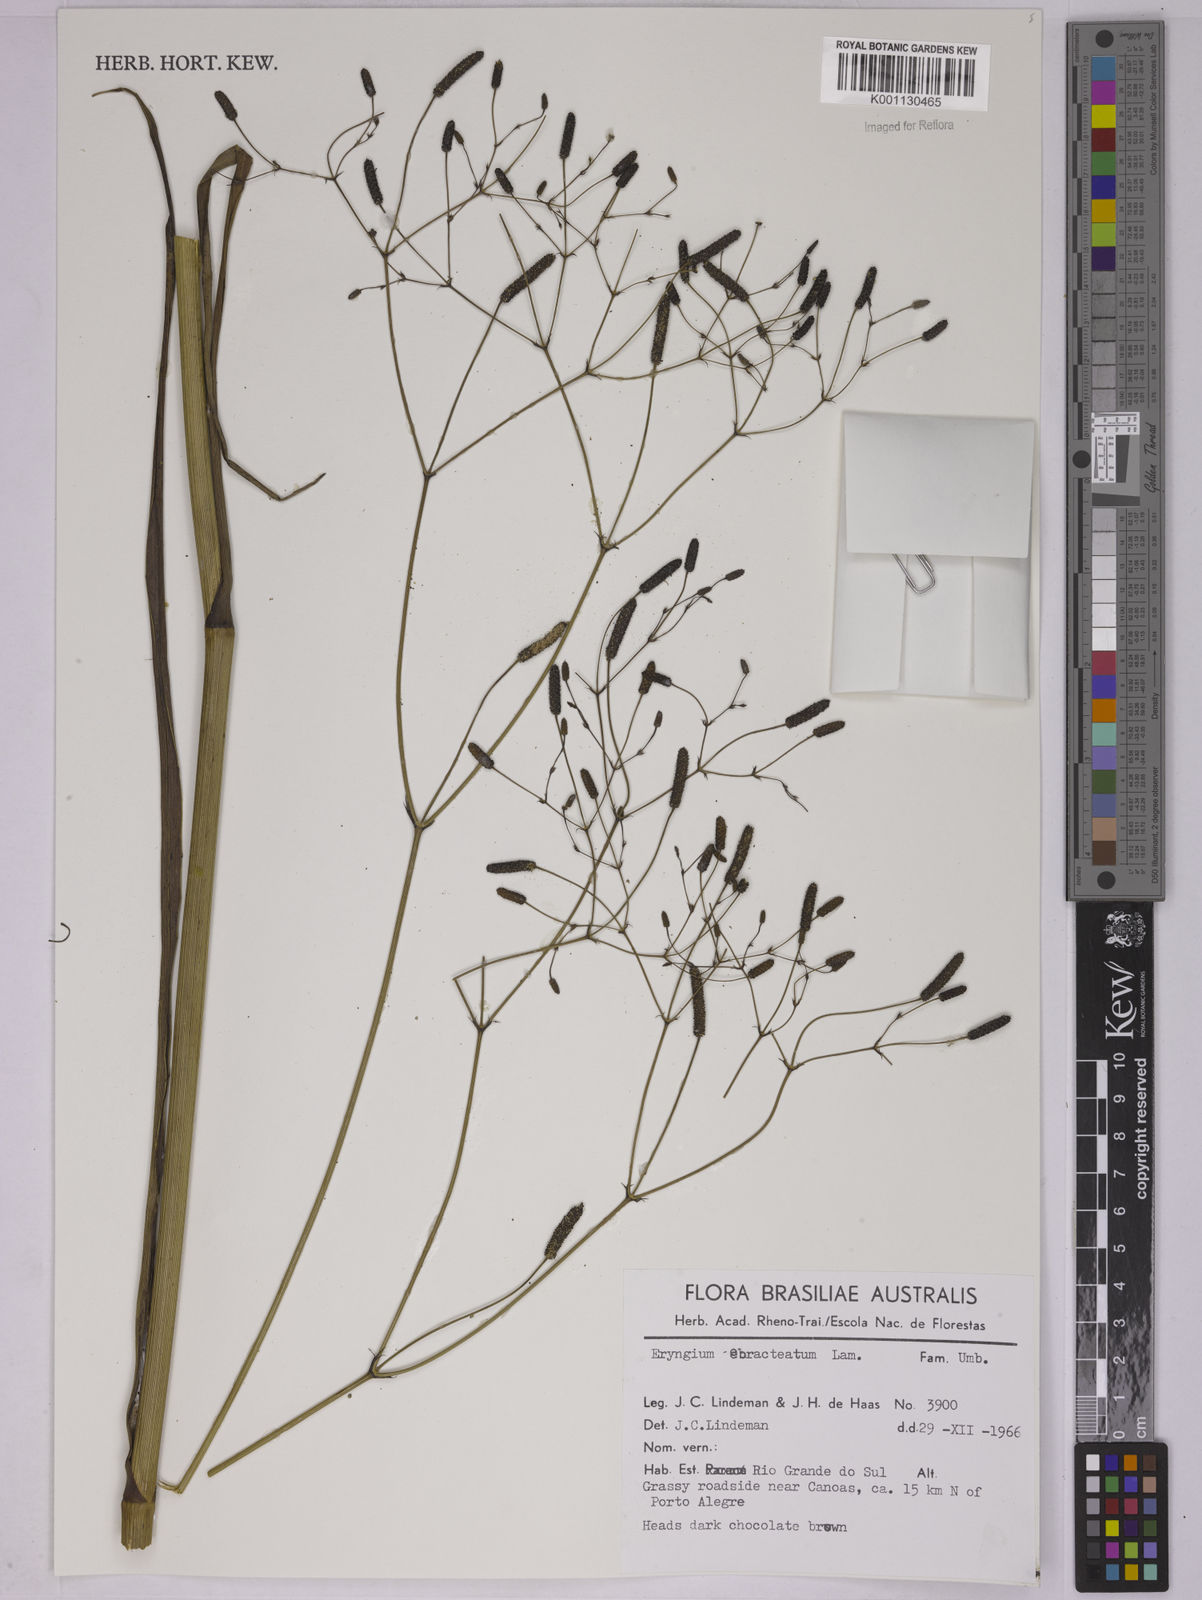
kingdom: Plantae
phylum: Tracheophyta
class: Magnoliopsida
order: Apiales
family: Apiaceae
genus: Eryngium
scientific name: Eryngium ebracteatum
